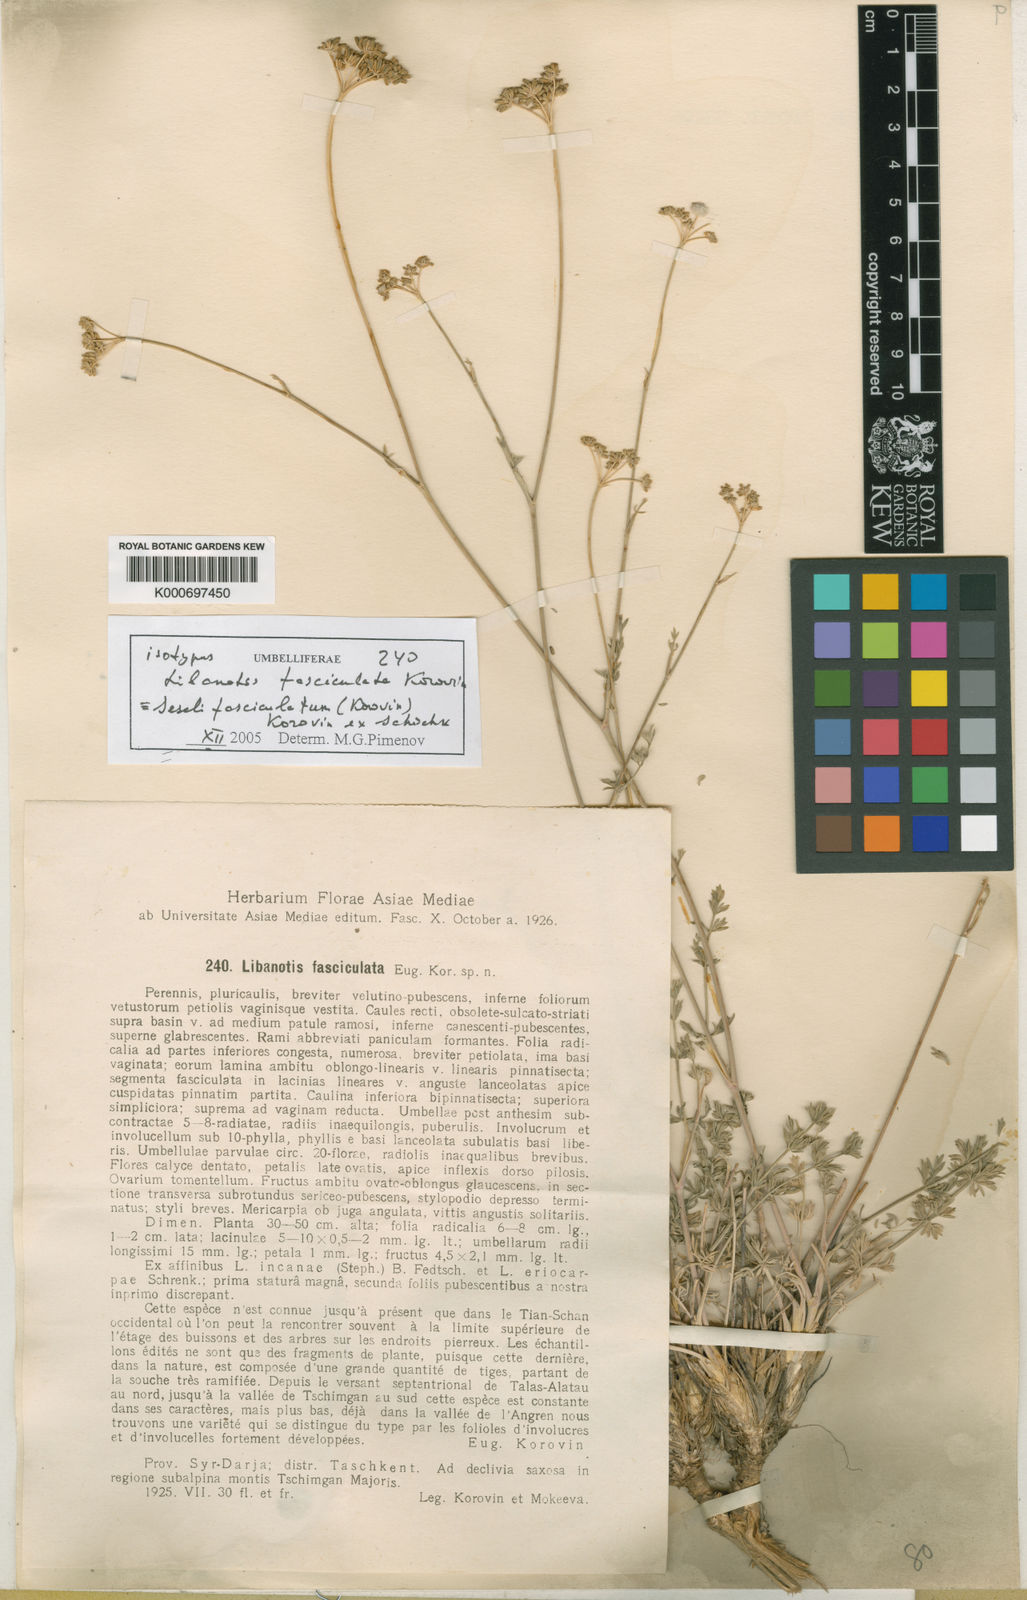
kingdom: Plantae
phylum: Tracheophyta
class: Magnoliopsida
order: Apiales
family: Apiaceae
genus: Seseli
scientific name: Seseli fasciculatum
